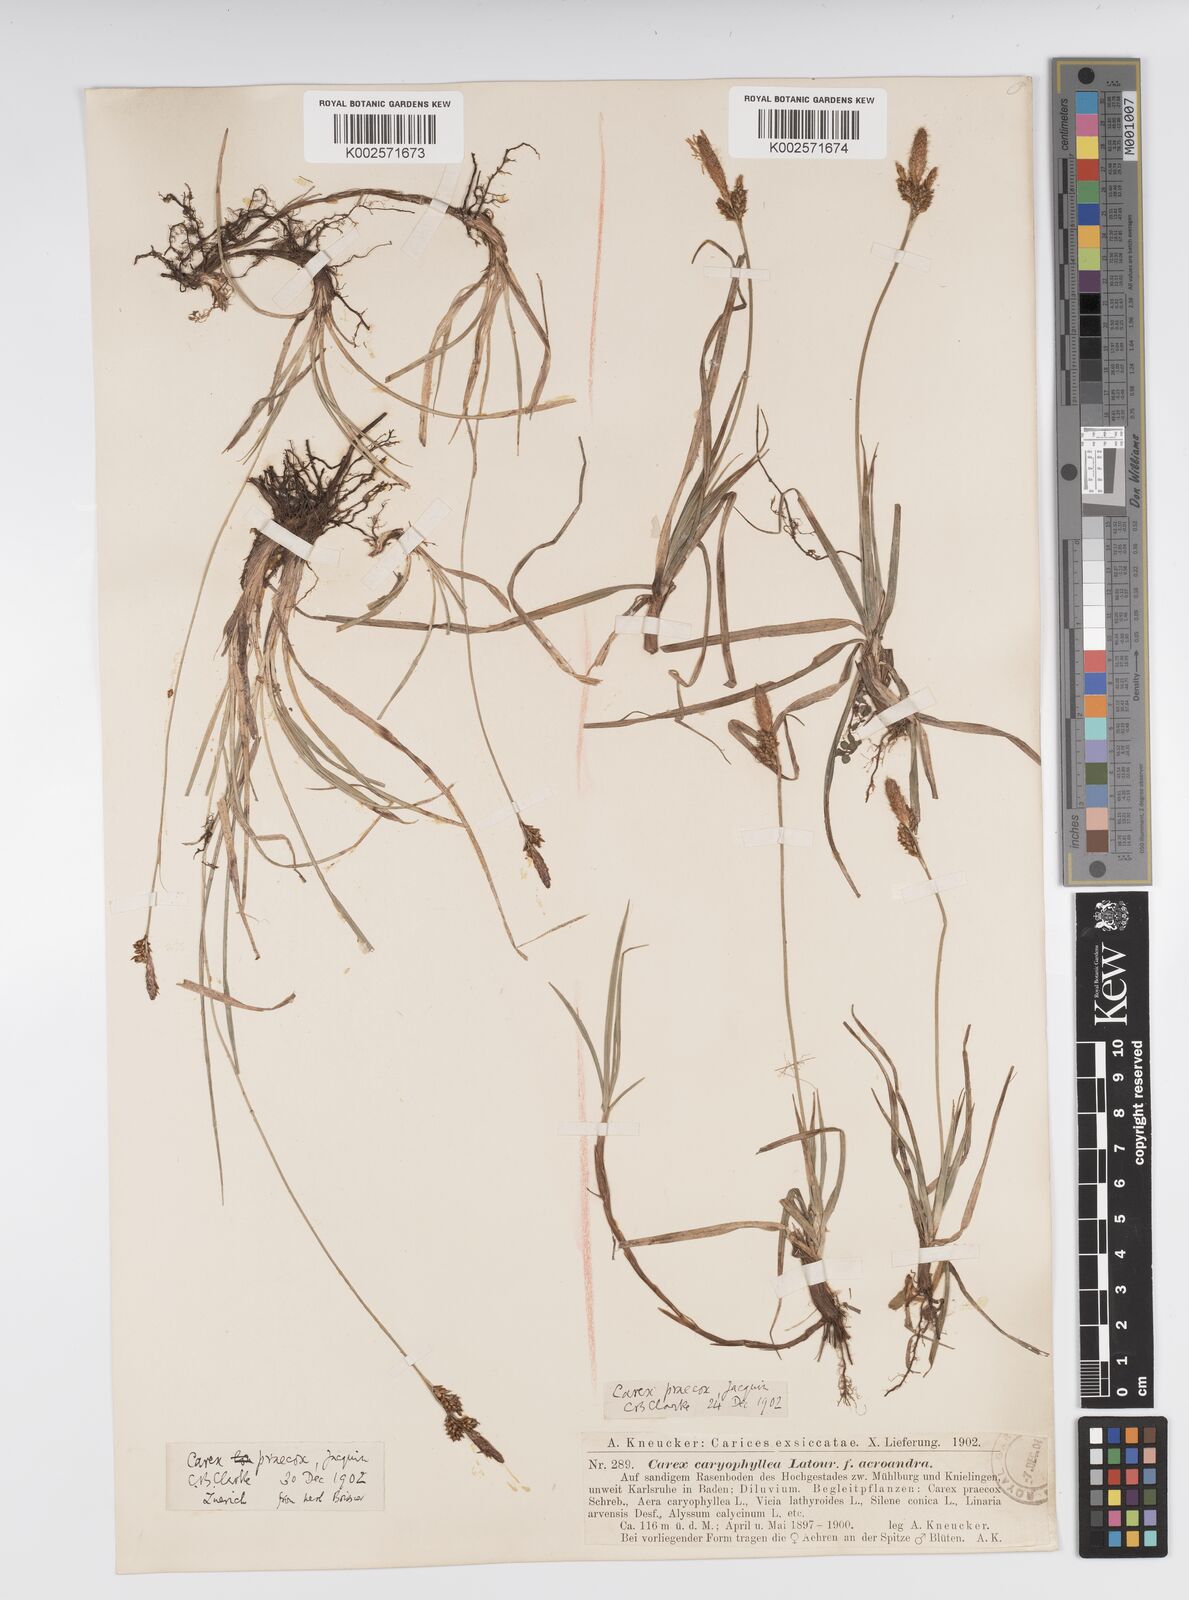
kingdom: Plantae
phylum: Tracheophyta
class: Liliopsida
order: Poales
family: Cyperaceae
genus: Carex
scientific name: Carex caryophyllea
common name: Spring sedge
